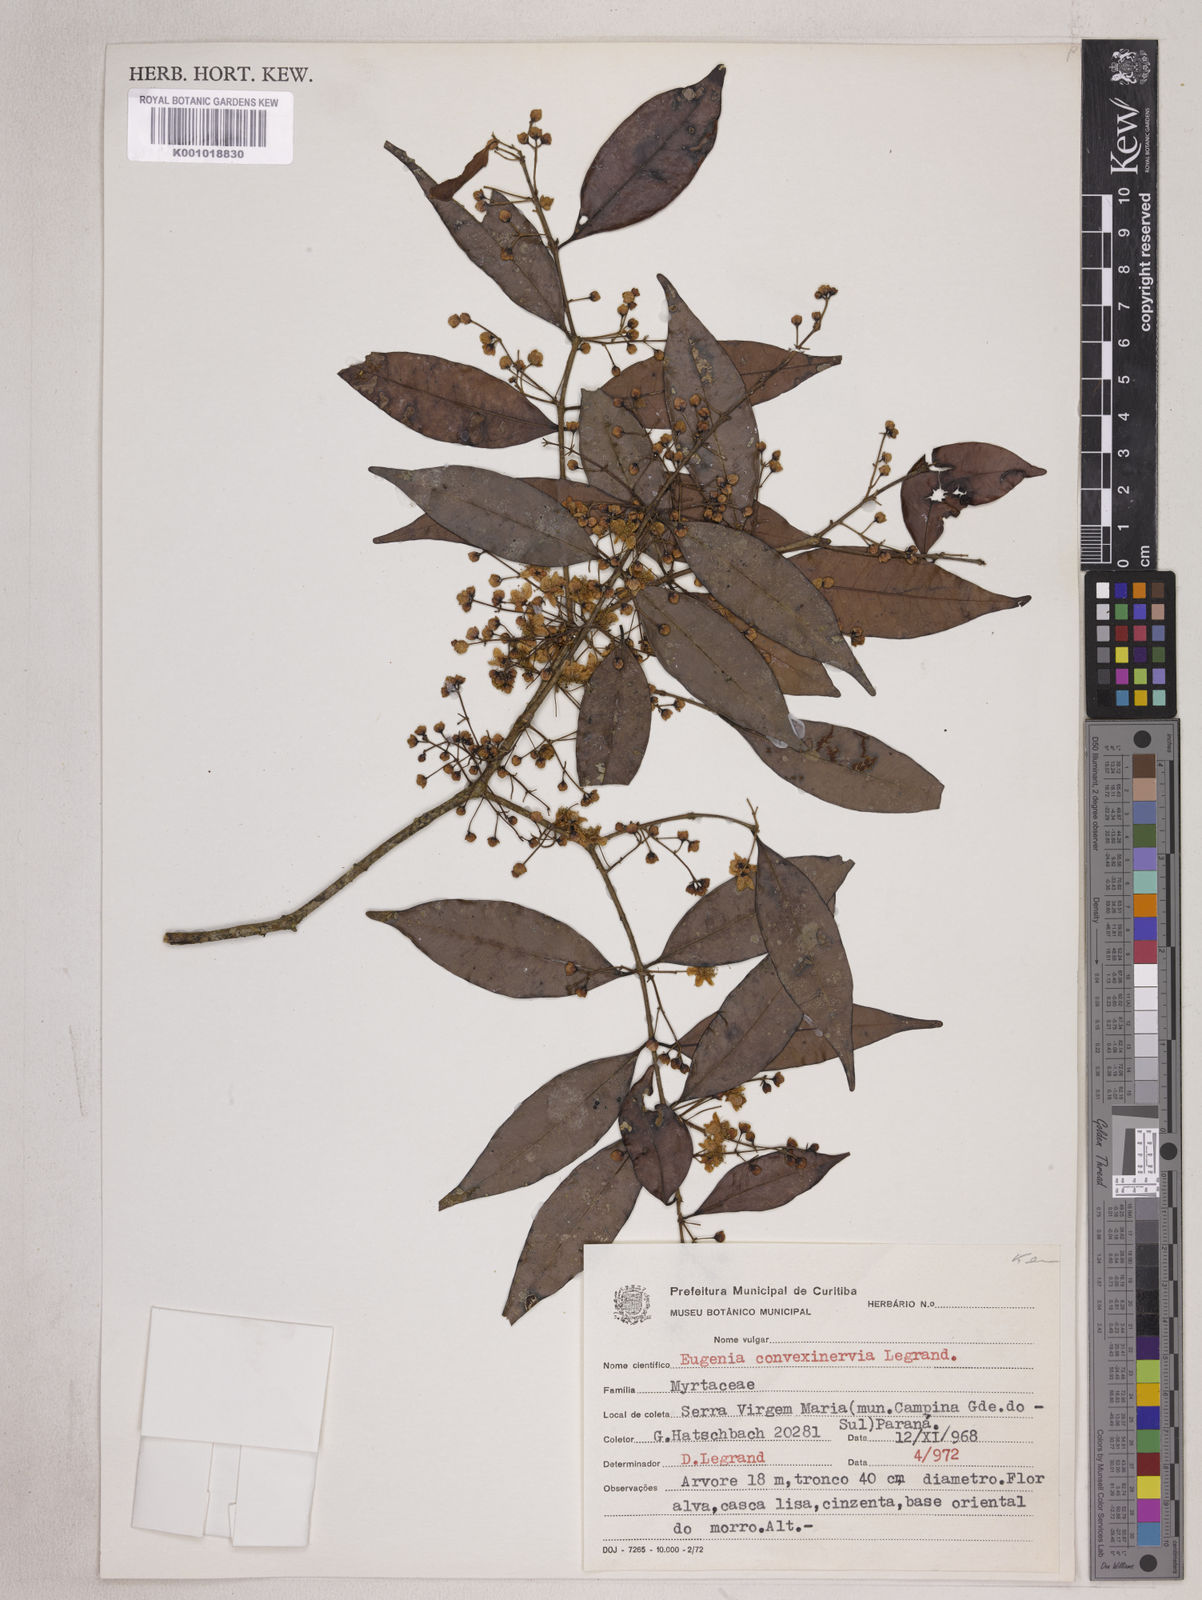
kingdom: Plantae
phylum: Tracheophyta
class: Magnoliopsida
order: Myrtales
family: Myrtaceae
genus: Eugenia
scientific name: Eugenia convexinervia
